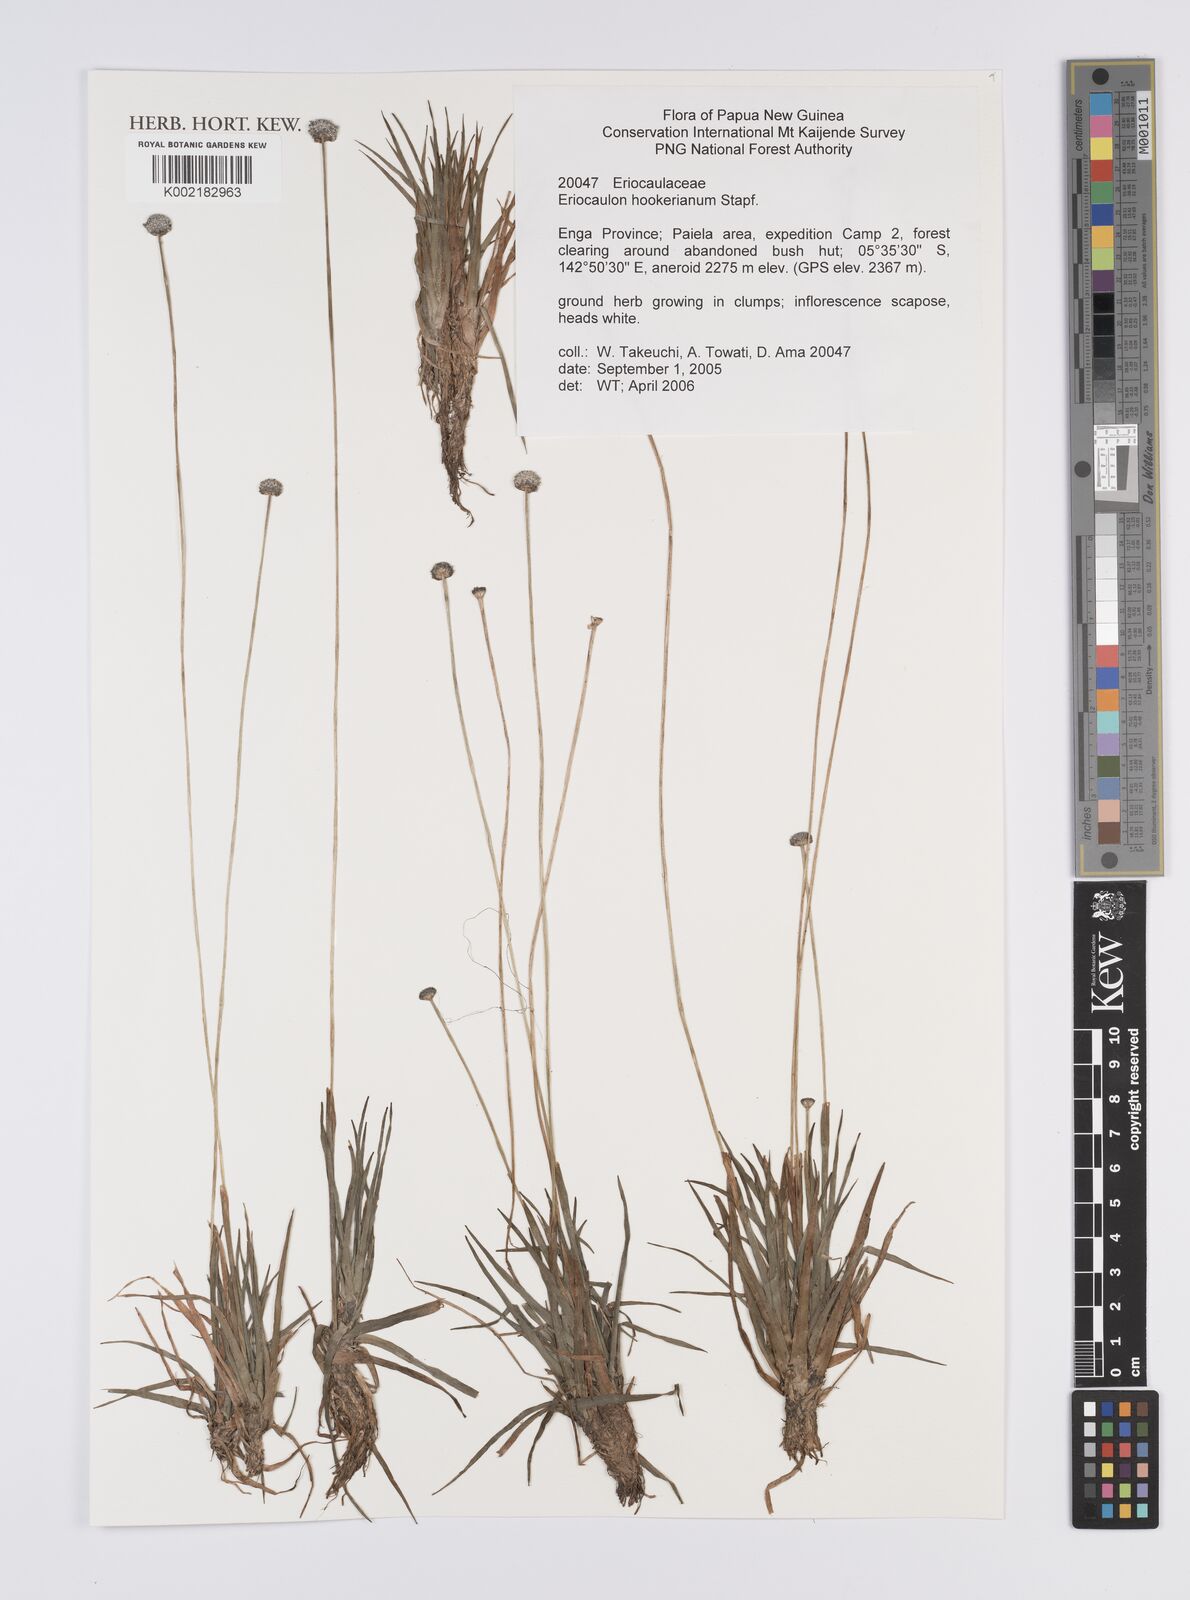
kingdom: Plantae
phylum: Tracheophyta
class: Liliopsida
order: Poales
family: Eriocaulaceae
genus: Eriocaulon
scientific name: Eriocaulon hookerianum
